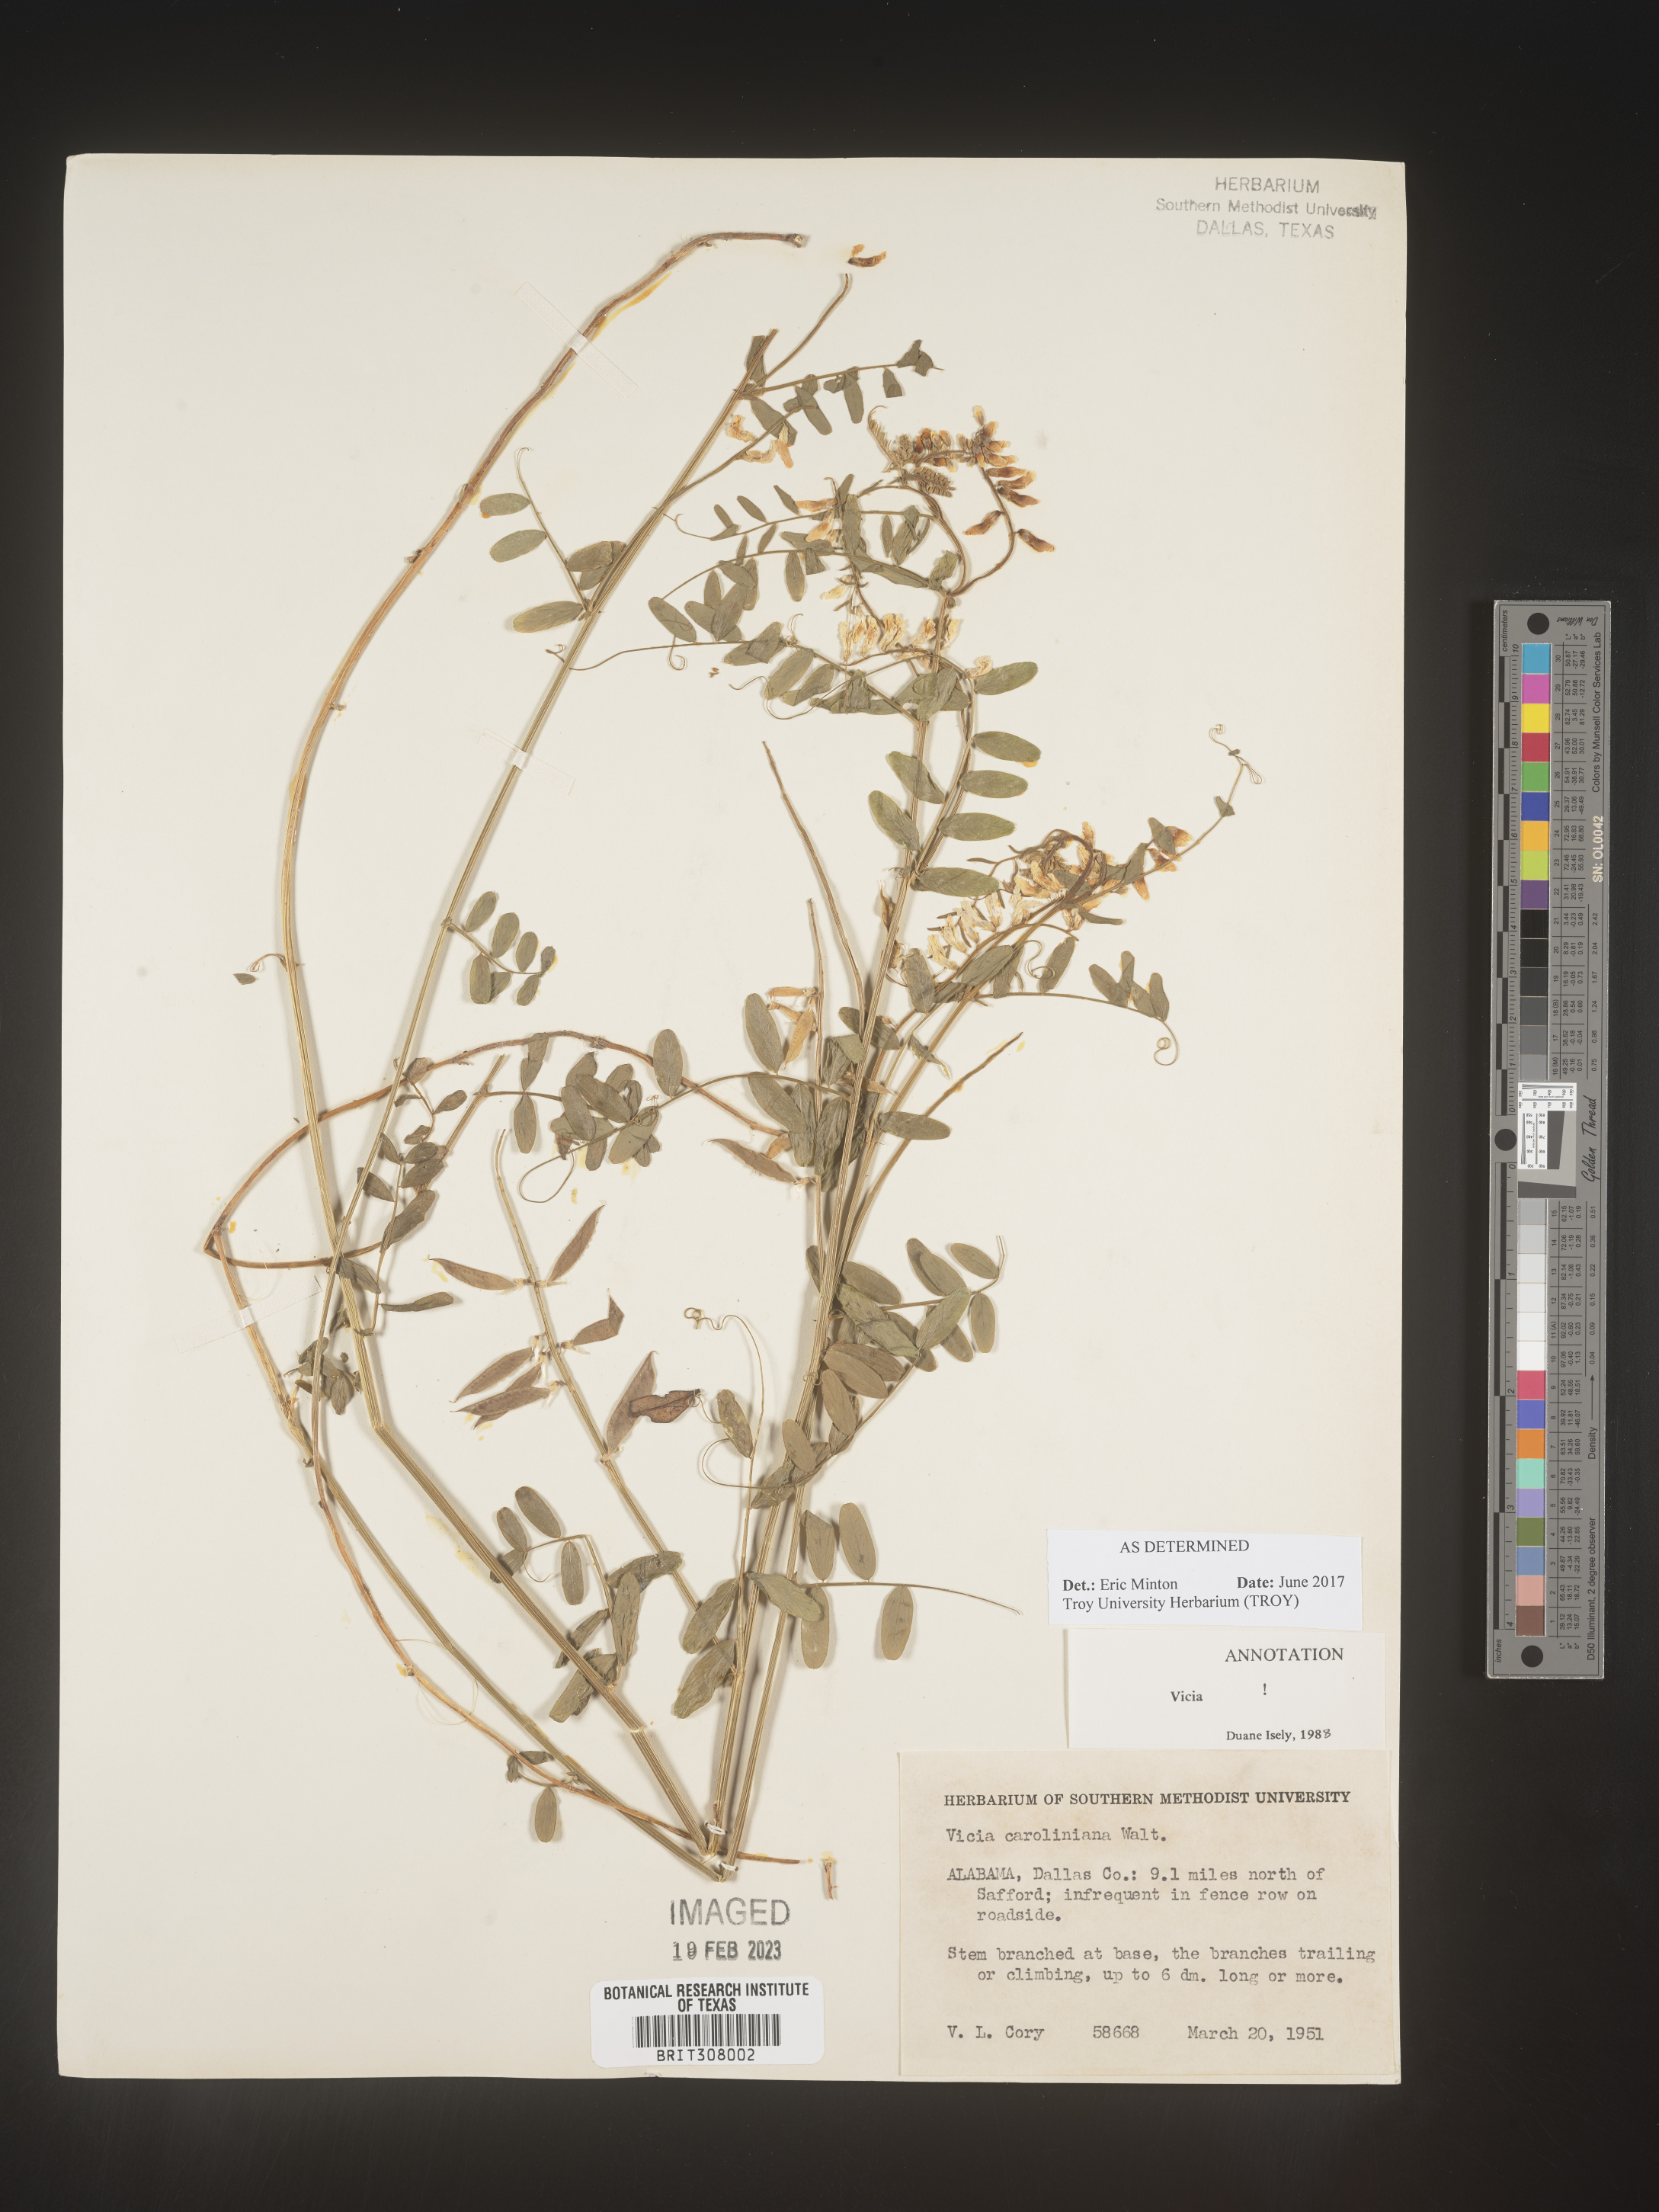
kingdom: Plantae
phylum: Tracheophyta
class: Magnoliopsida
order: Fabales
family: Fabaceae
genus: Vicia
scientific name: Vicia caroliniana
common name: Carolina vetch
